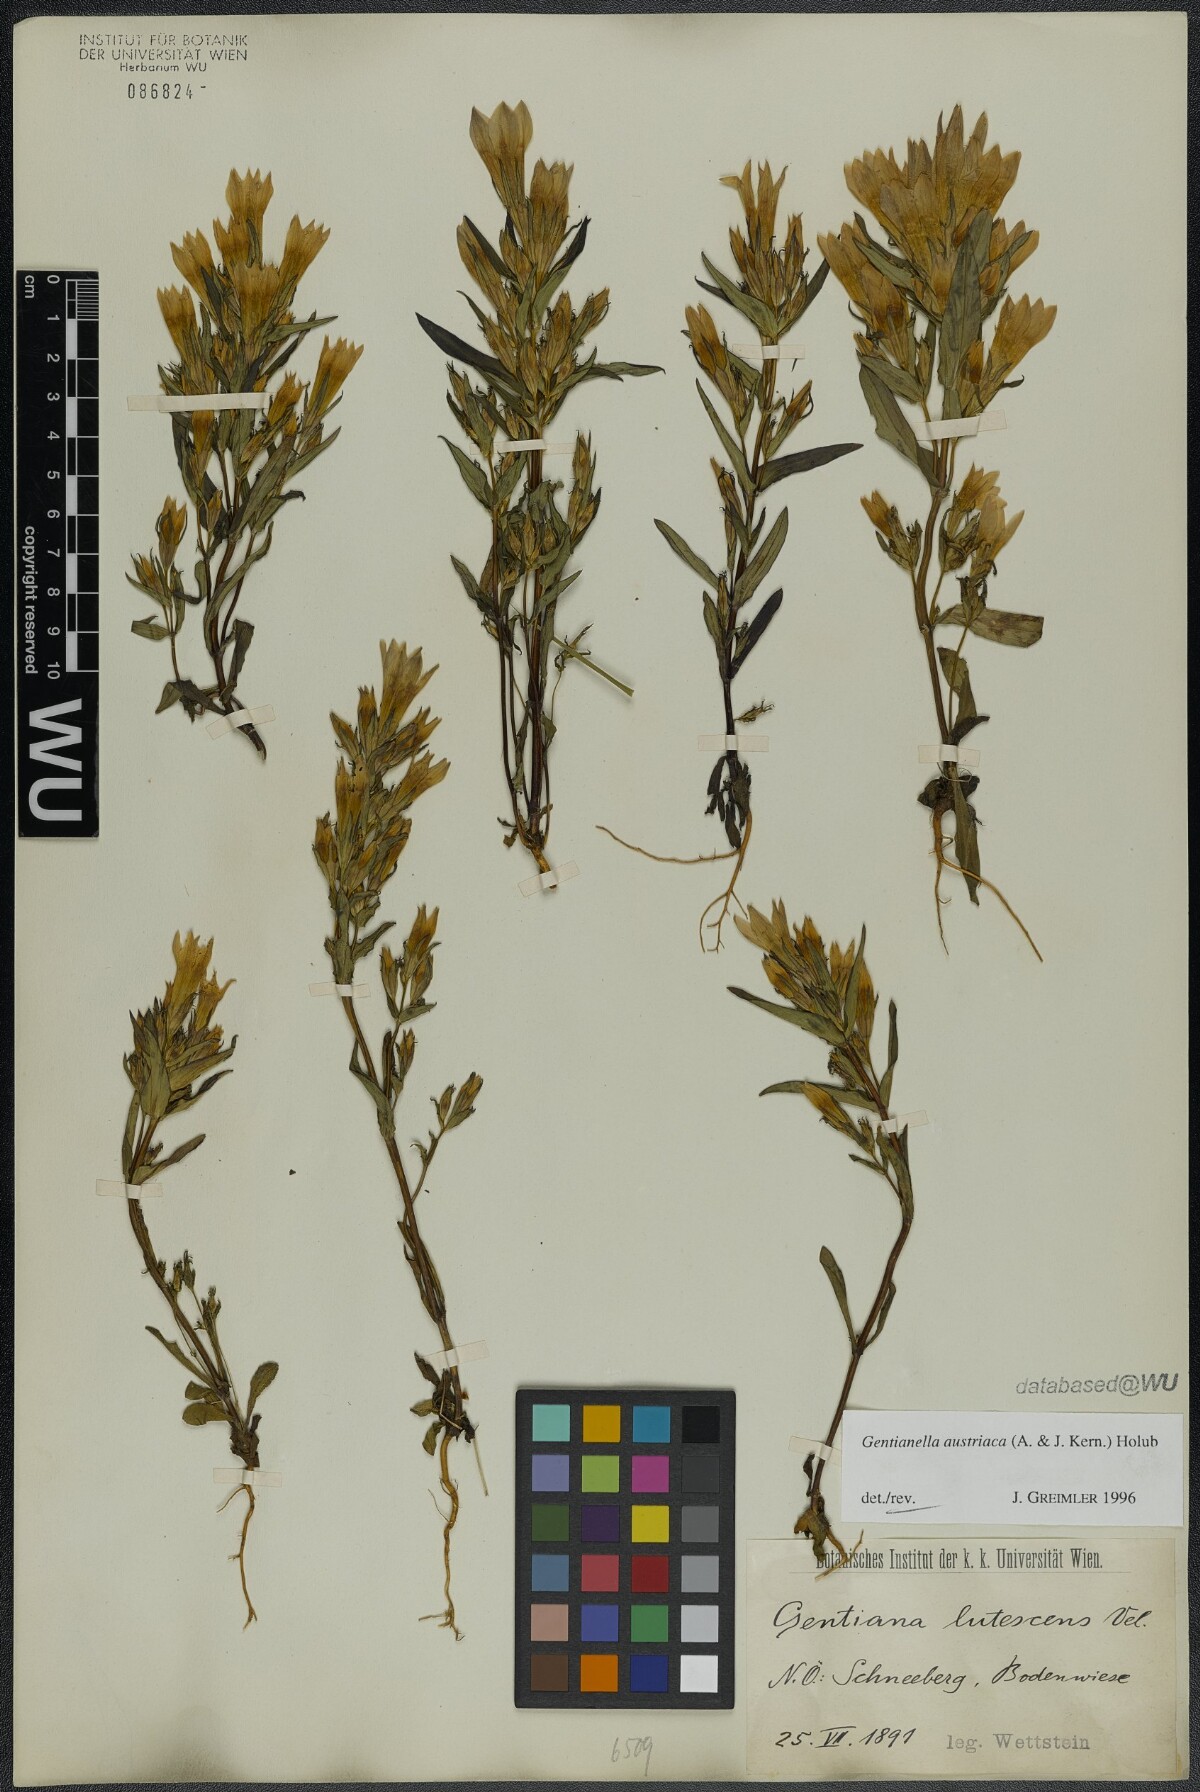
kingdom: Plantae
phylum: Tracheophyta
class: Magnoliopsida
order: Gentianales
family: Gentianaceae
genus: Gentianella
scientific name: Gentianella austriaca
